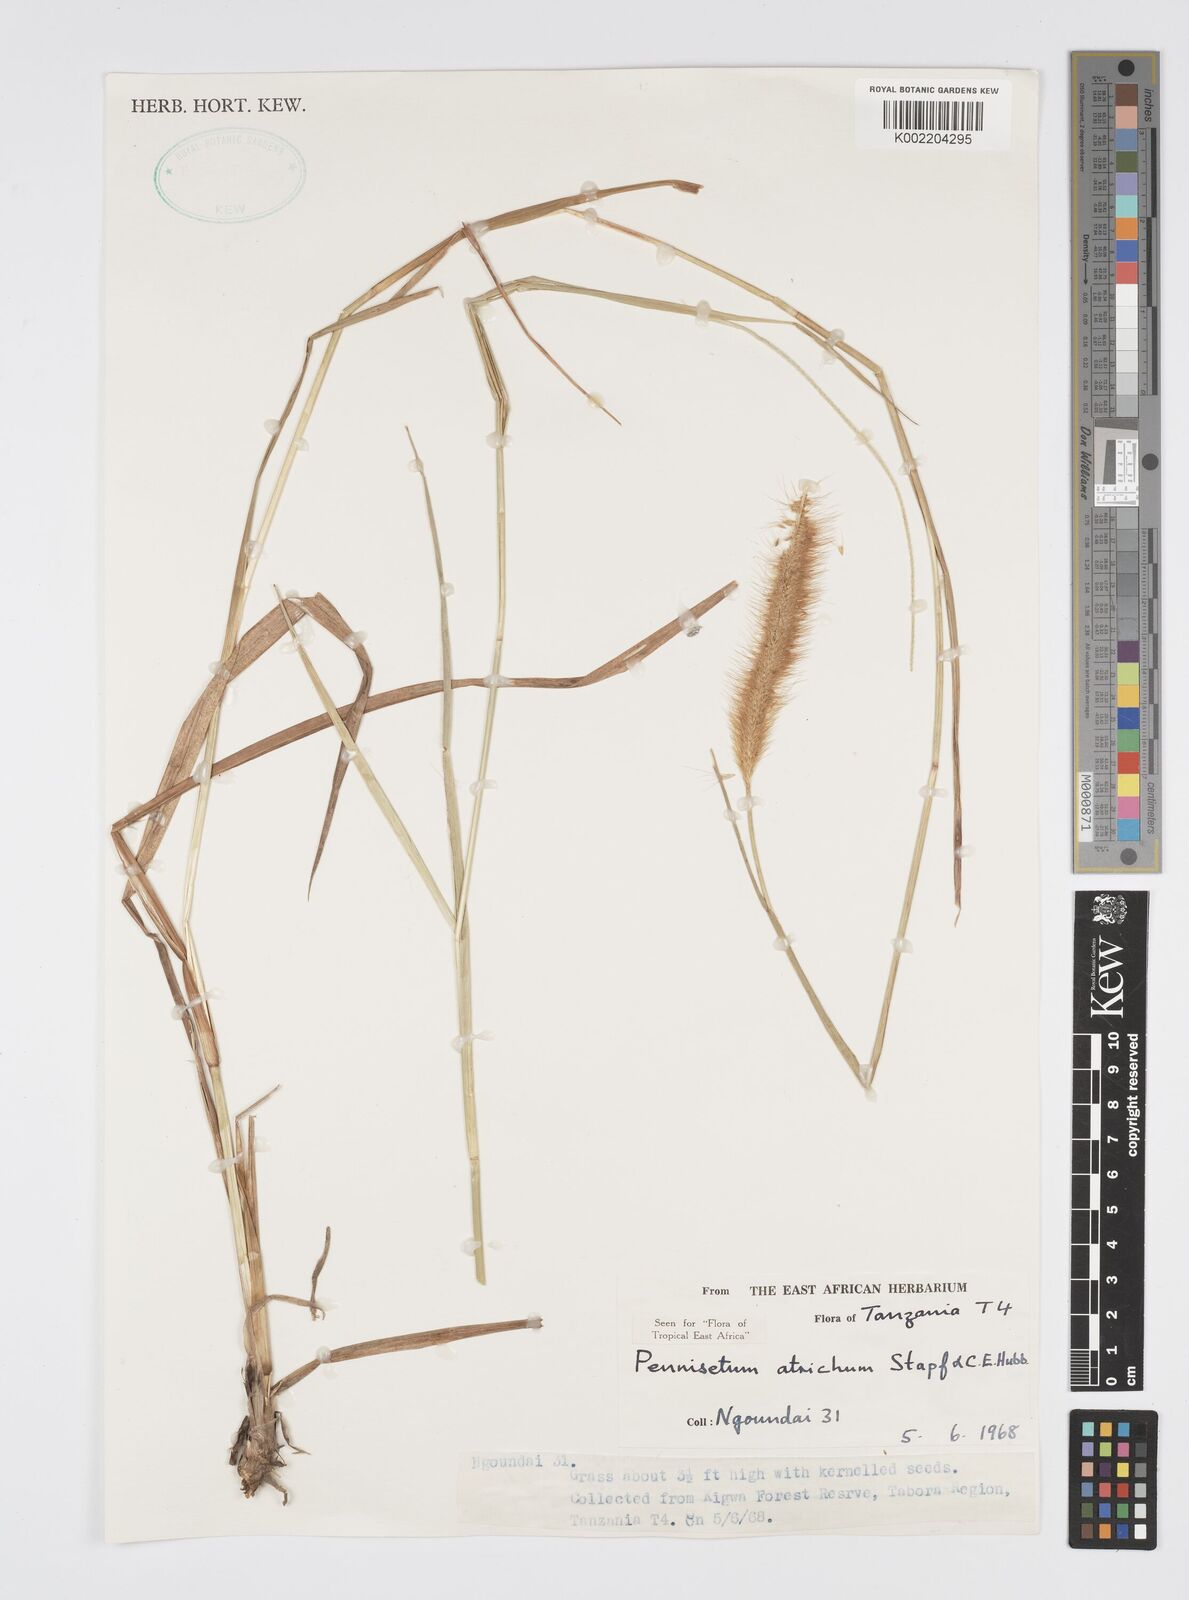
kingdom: Plantae
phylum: Tracheophyta
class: Liliopsida
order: Poales
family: Poaceae
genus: Setaria
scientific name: Setaria parviflora
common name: Knotroot bristle-grass
